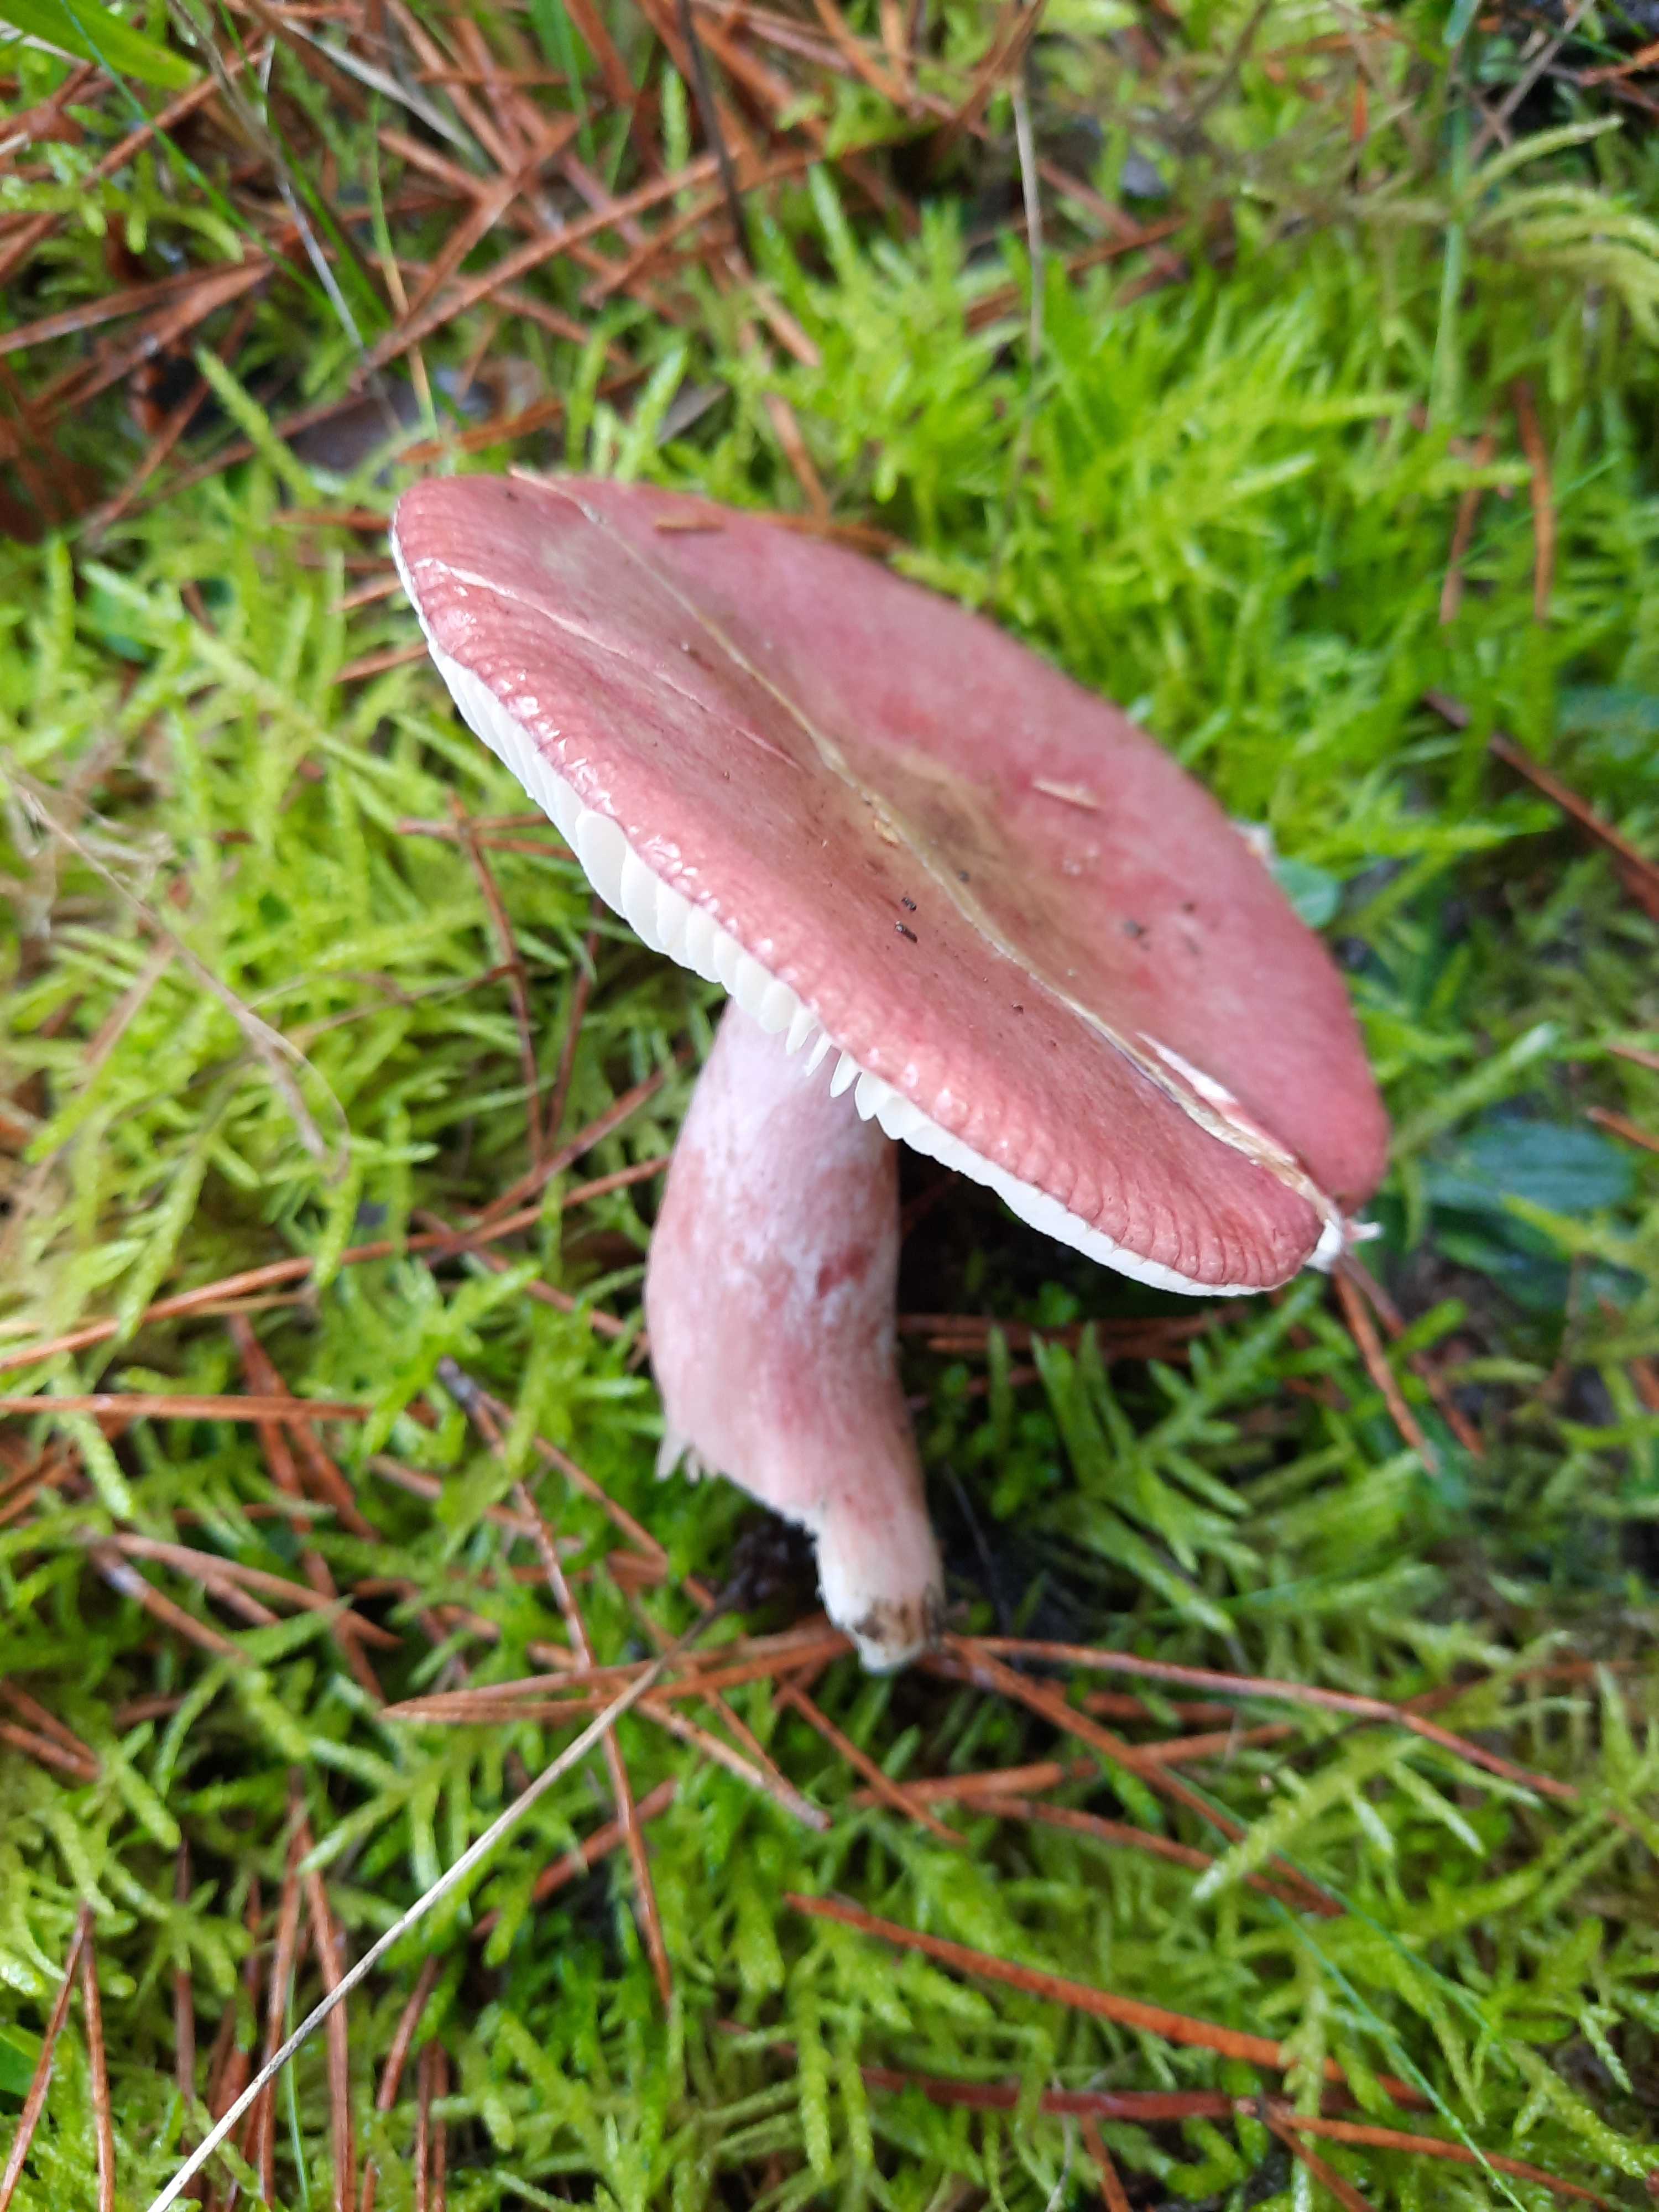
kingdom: Fungi
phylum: Basidiomycota
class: Agaricomycetes
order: Russulales
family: Russulaceae
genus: Russula
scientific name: Russula queletii
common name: Quélets skørhat
